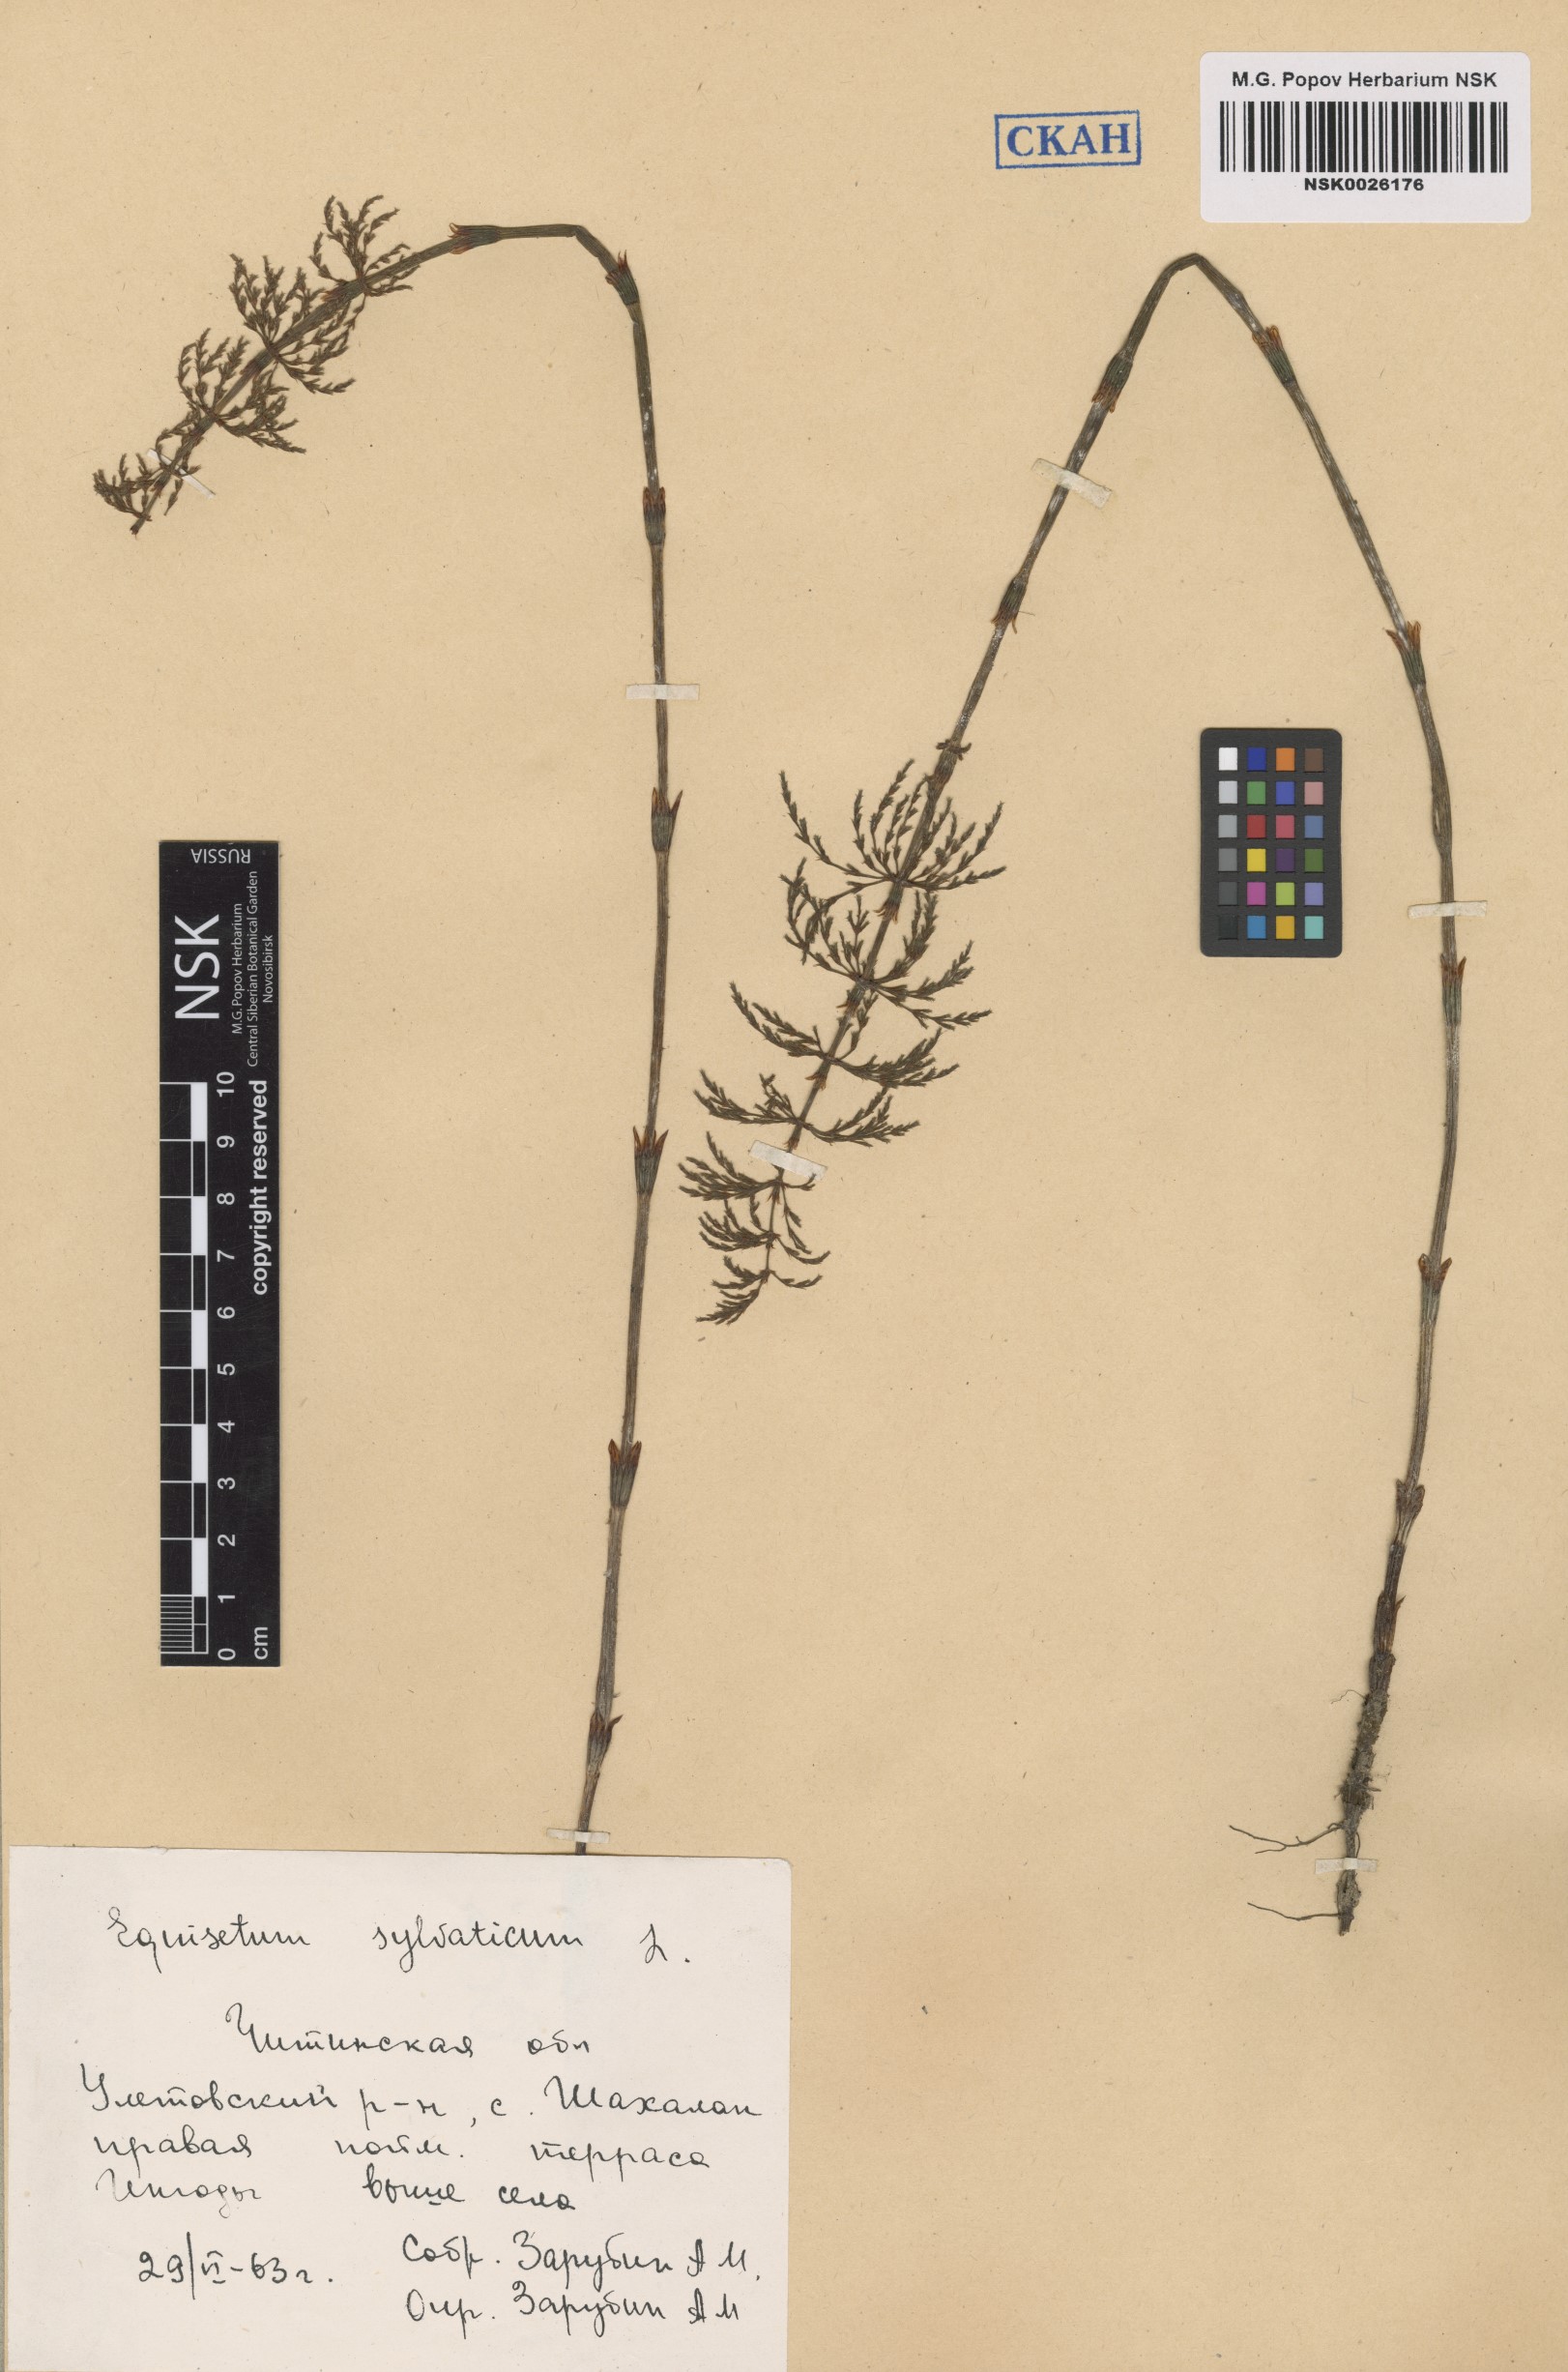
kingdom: Plantae
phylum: Tracheophyta
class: Polypodiopsida
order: Equisetales
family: Equisetaceae
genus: Equisetum
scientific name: Equisetum sylvaticum
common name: Wood horsetail
